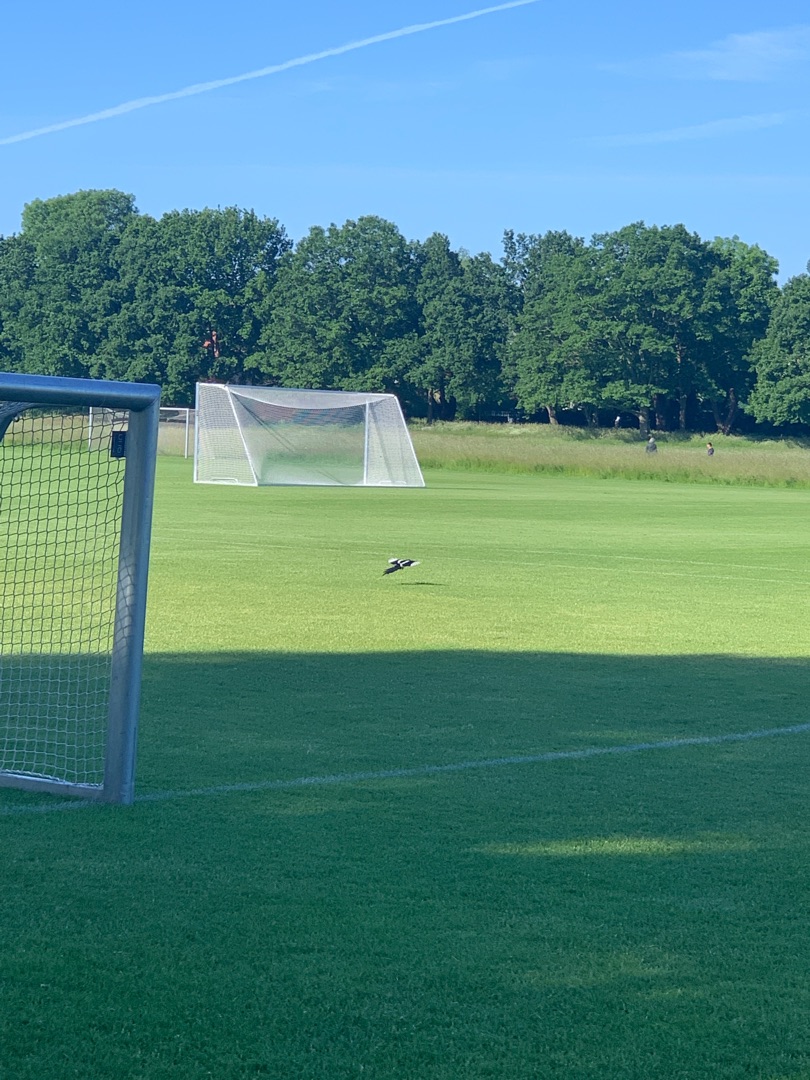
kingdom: Animalia
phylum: Chordata
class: Aves
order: Passeriformes
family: Corvidae
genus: Pica
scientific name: Pica pica
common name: Husskade
